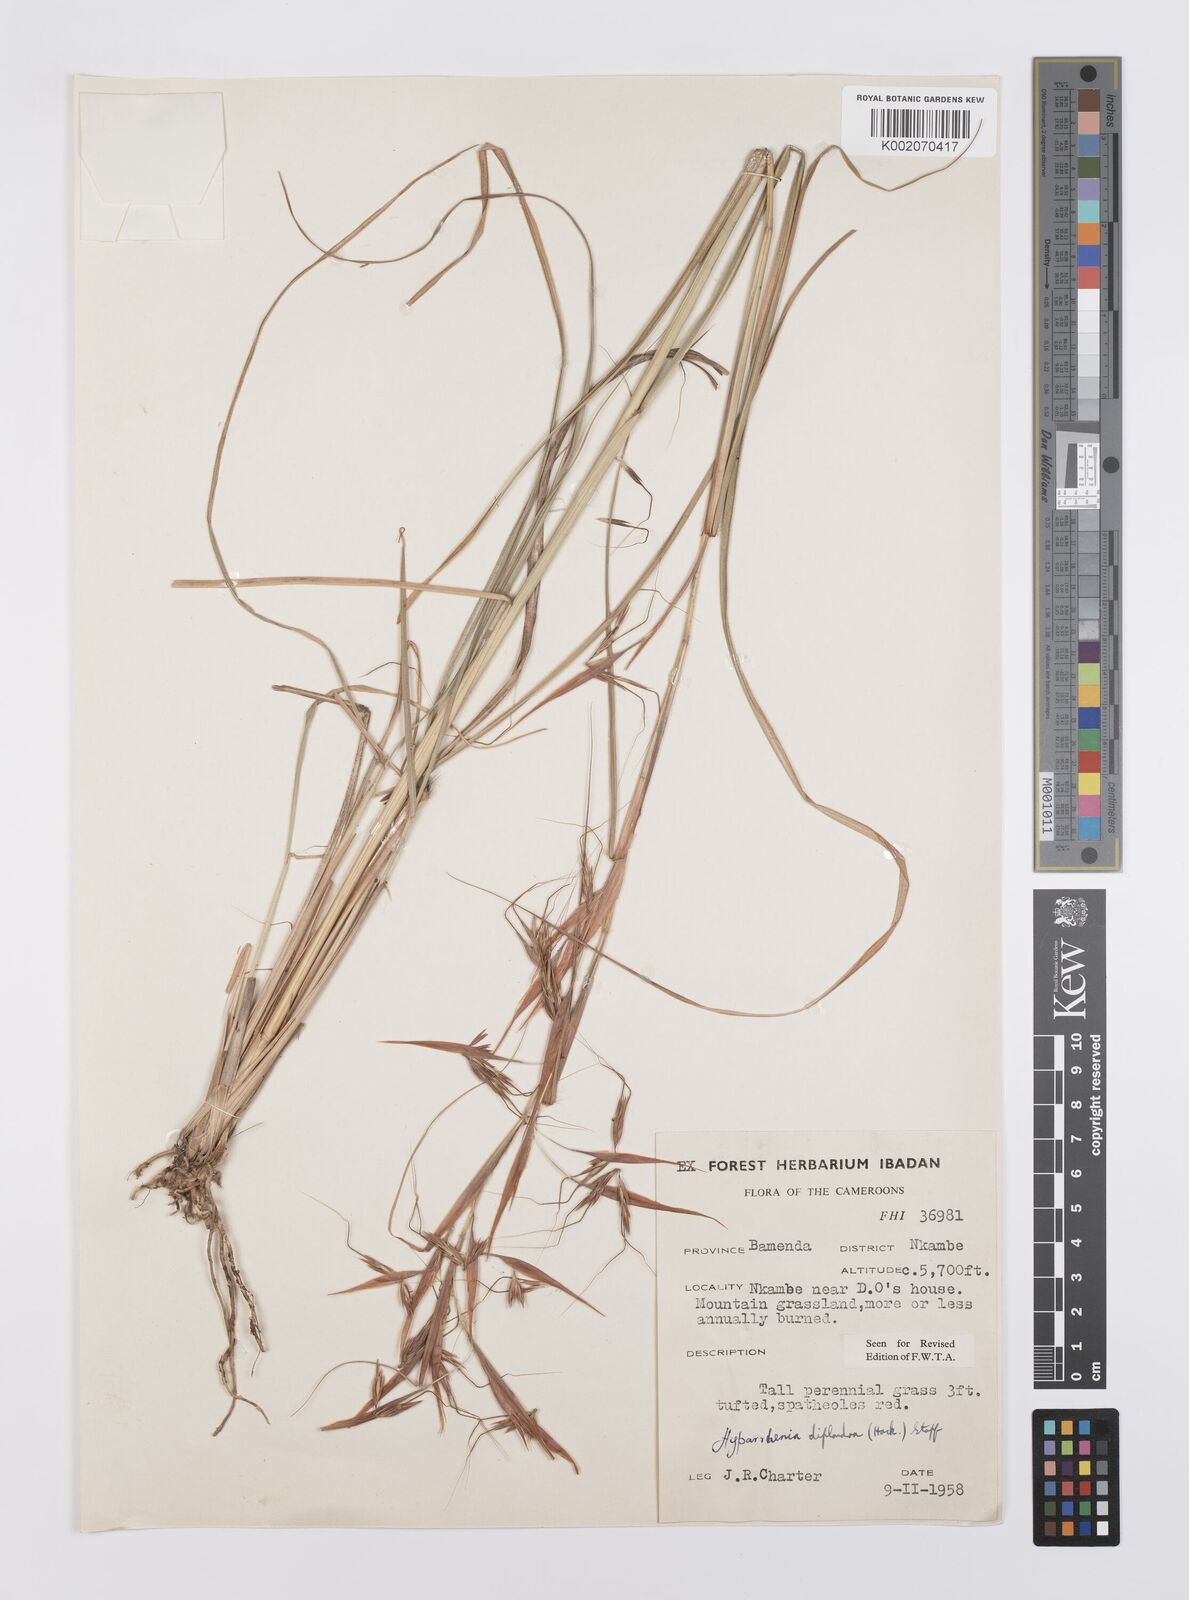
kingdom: Plantae
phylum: Tracheophyta
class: Liliopsida
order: Poales
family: Poaceae
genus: Hyparrhenia
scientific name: Hyparrhenia diplandra
